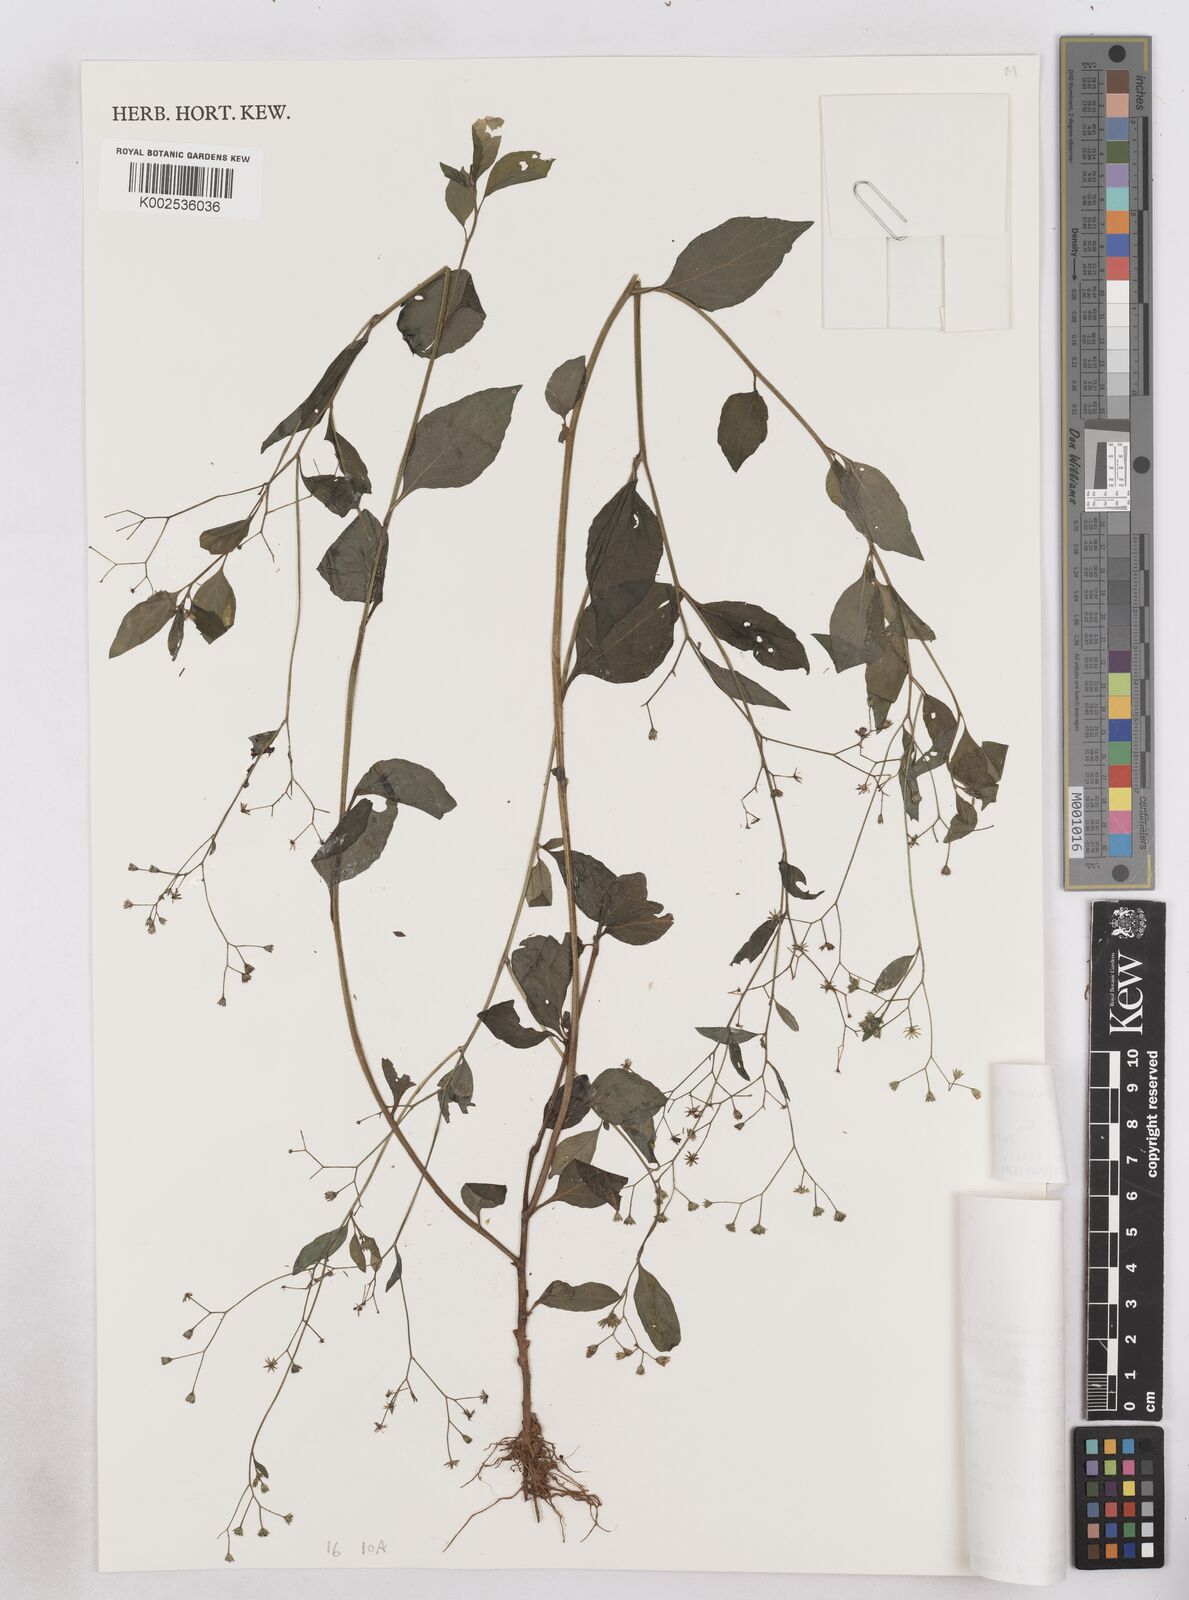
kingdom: Plantae
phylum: Tracheophyta
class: Magnoliopsida
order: Asterales
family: Asteraceae
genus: Cyanthillium
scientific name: Cyanthillium stelluliferum
